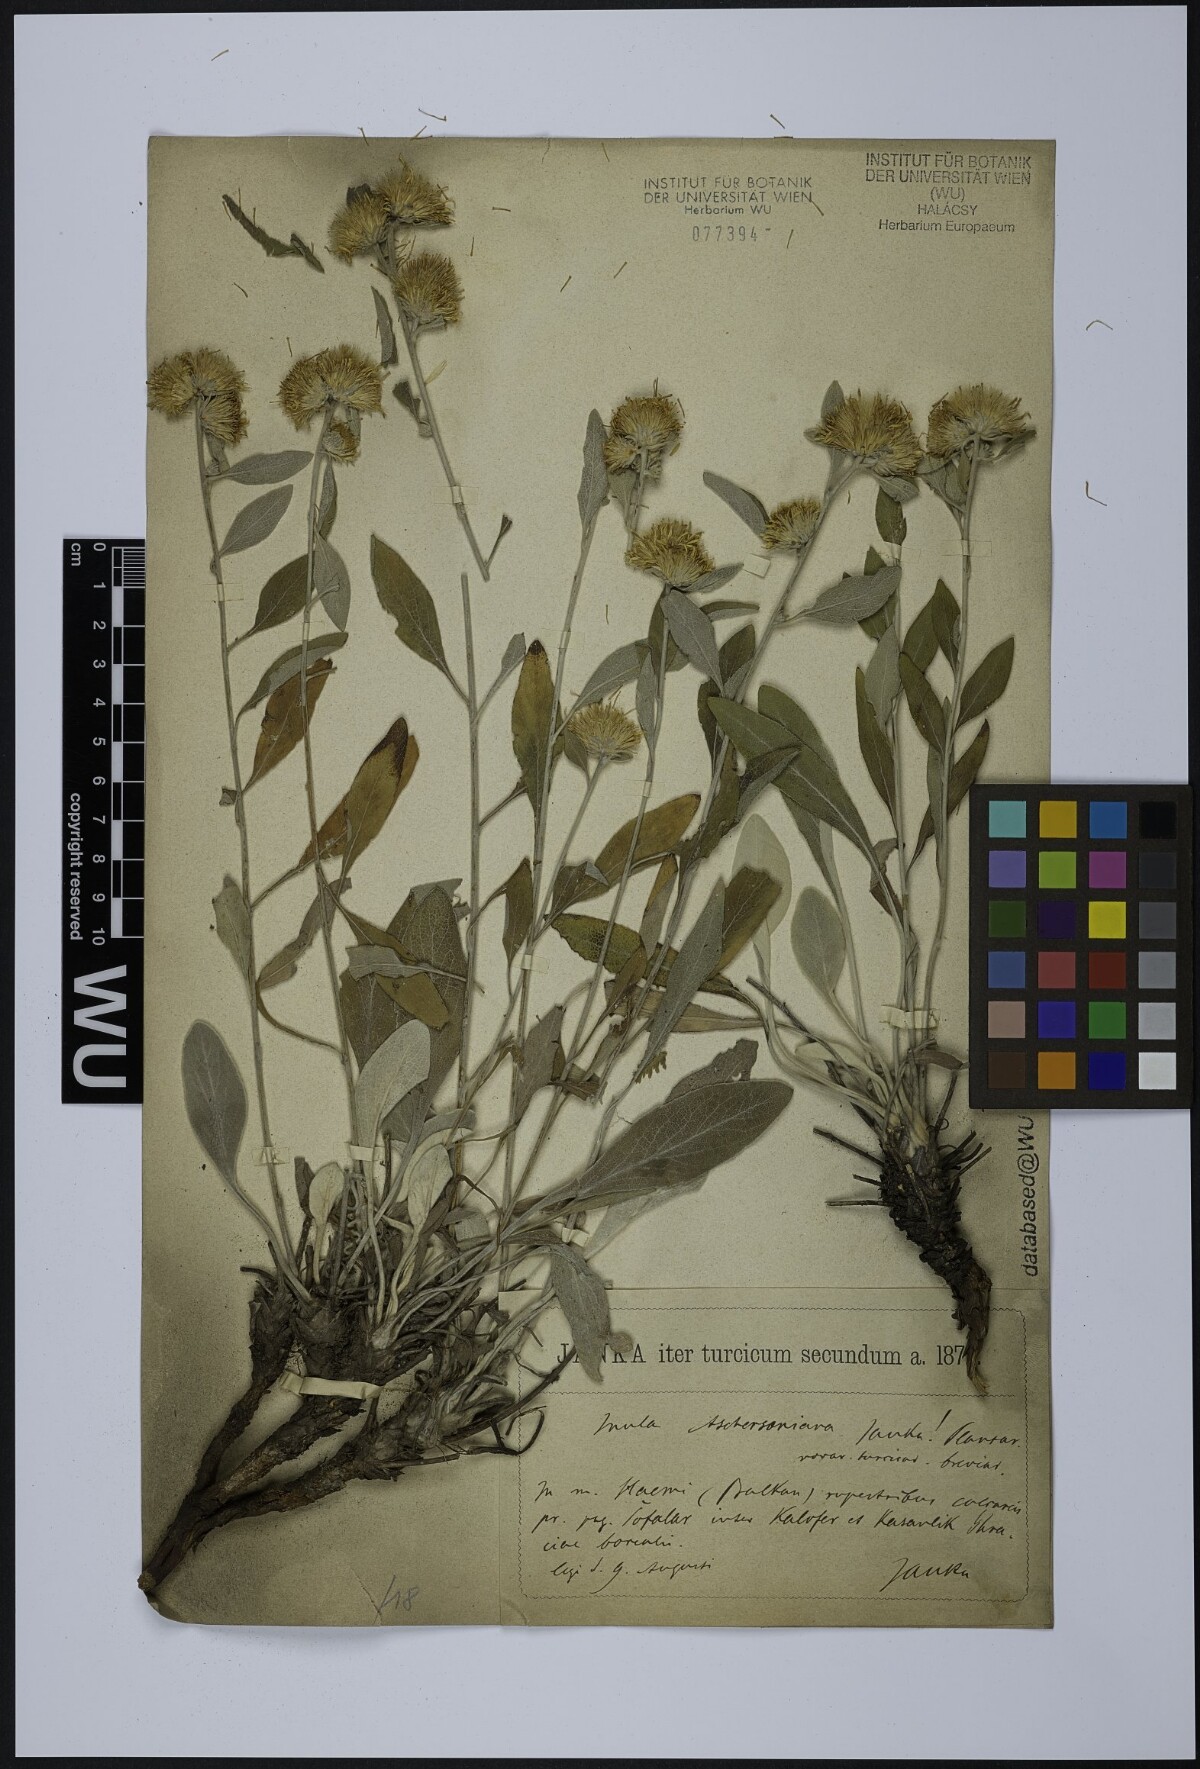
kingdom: Plantae
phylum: Tracheophyta
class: Magnoliopsida
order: Asterales
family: Asteraceae
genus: Pentanema
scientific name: Pentanema aschersonianum
